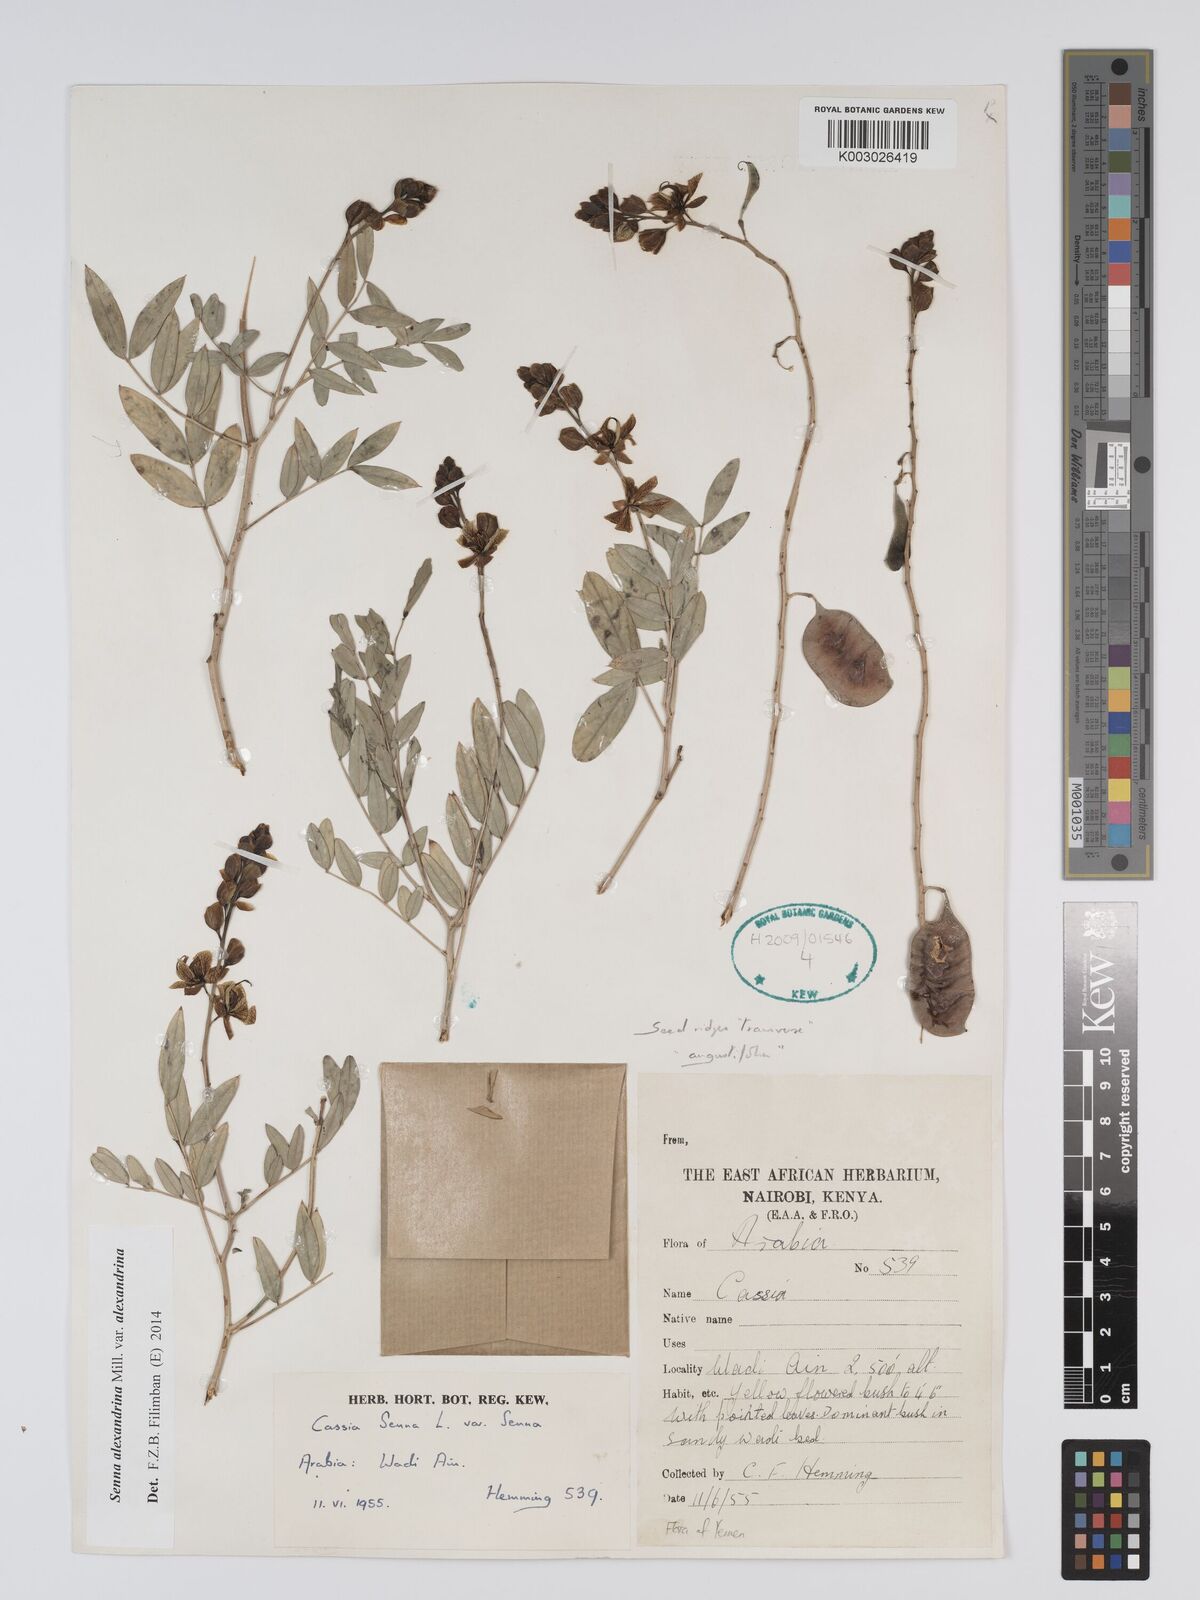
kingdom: Plantae
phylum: Tracheophyta
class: Magnoliopsida
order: Fabales
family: Fabaceae
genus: Senna
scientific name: Senna alexandrina
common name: True senna
